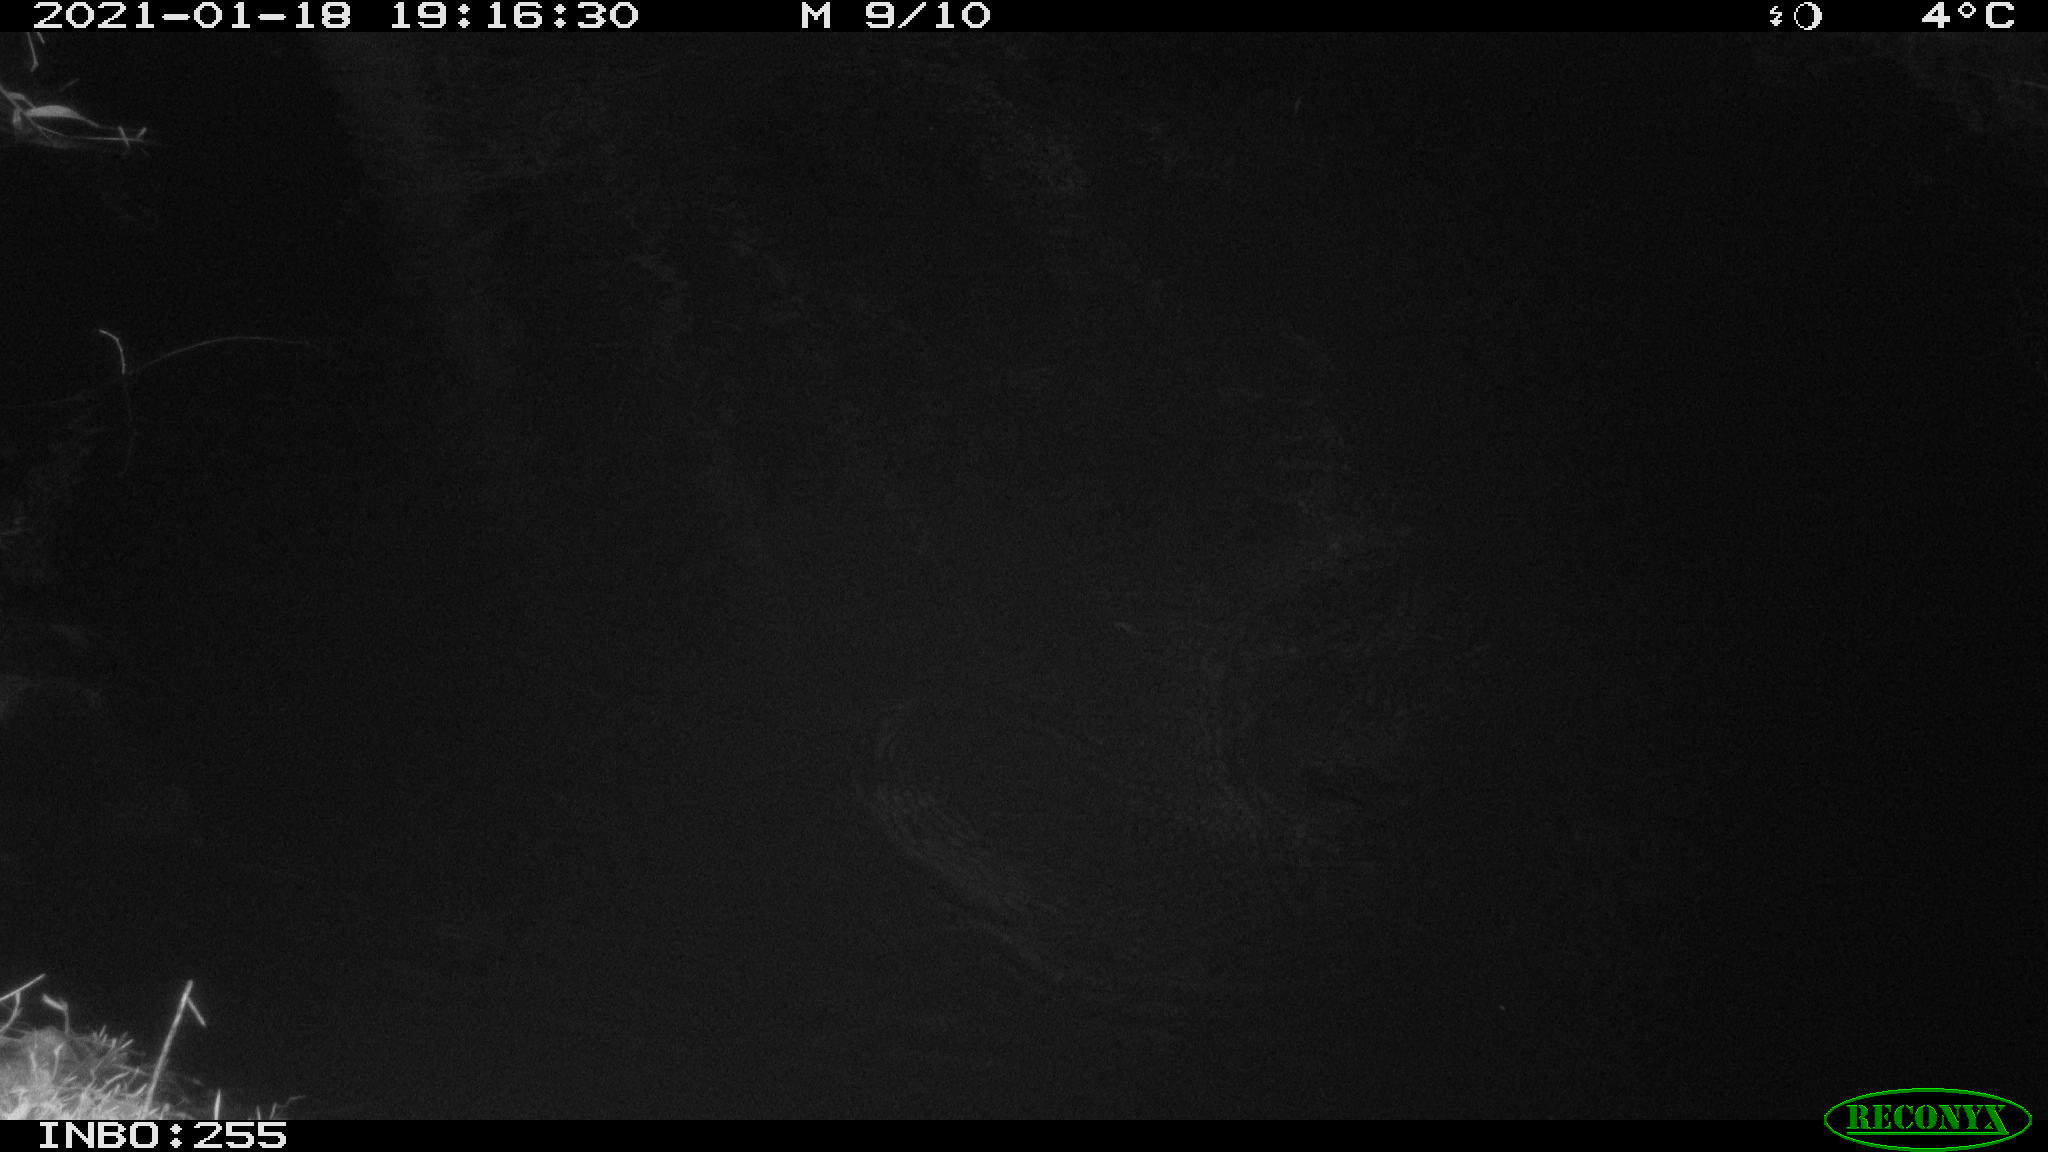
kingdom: Animalia
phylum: Chordata
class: Mammalia
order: Rodentia
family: Muridae
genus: Rattus
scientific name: Rattus norvegicus
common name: Brown rat
